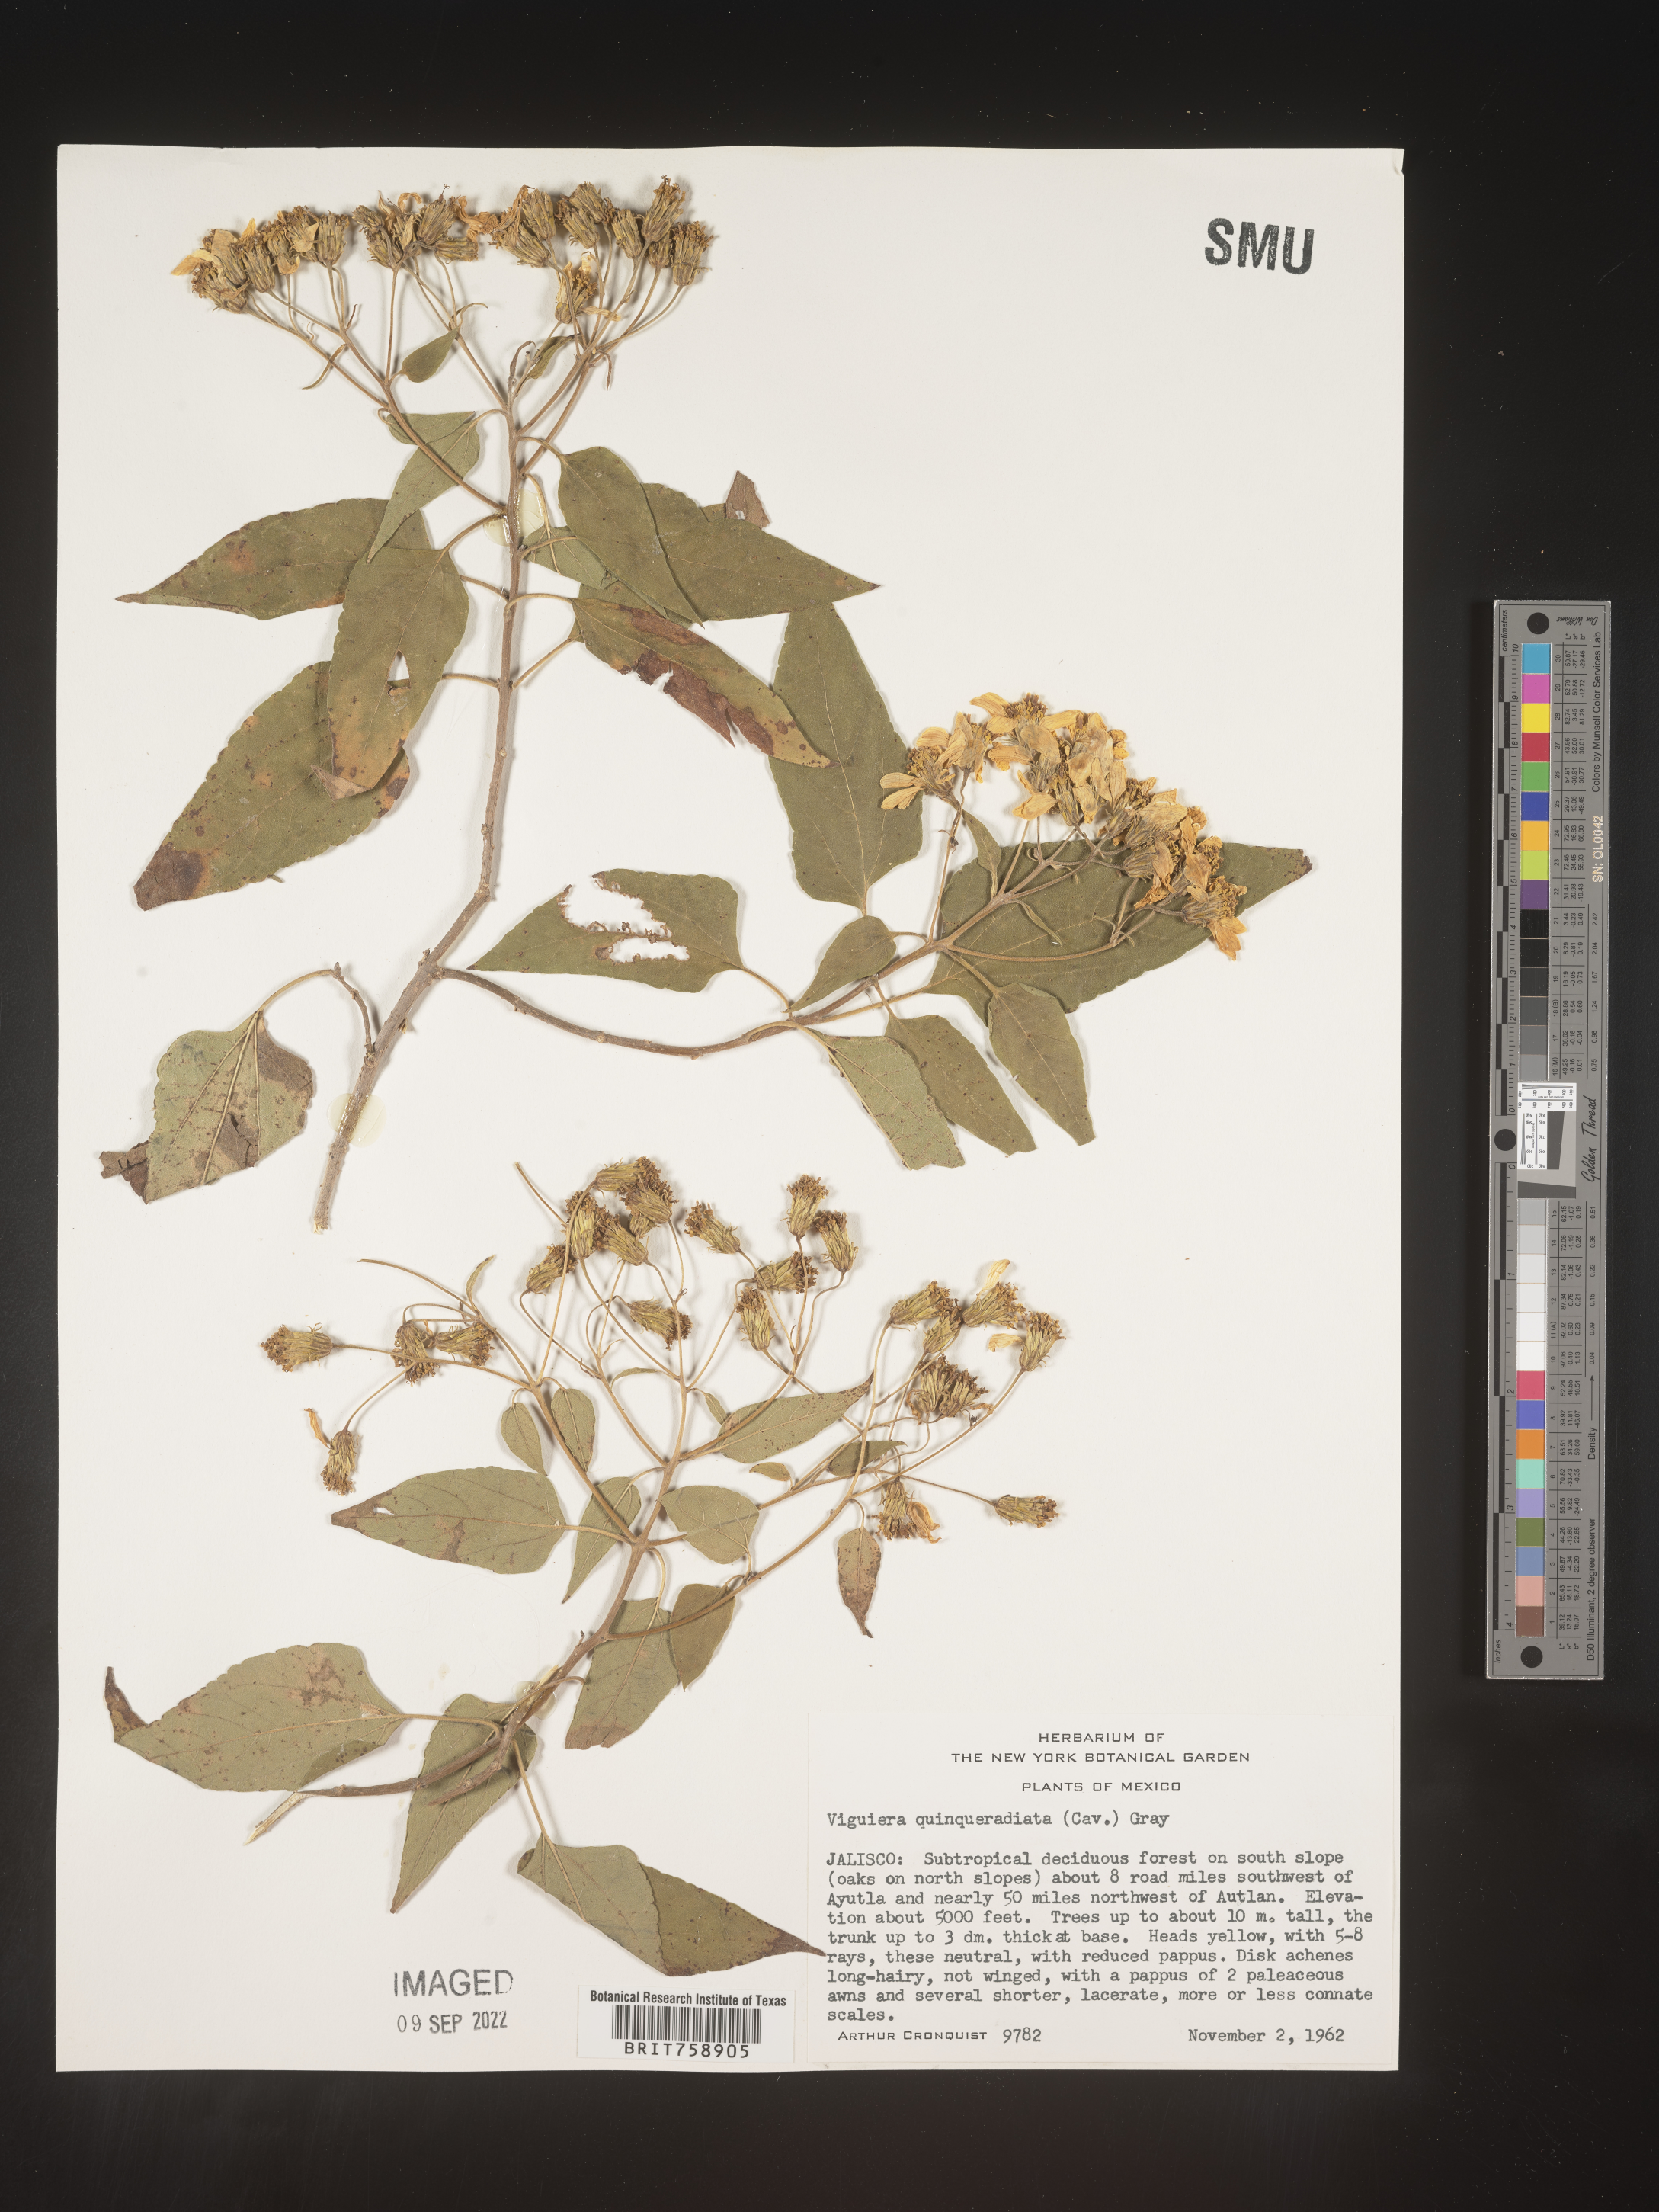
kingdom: Plantae
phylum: Tracheophyta
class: Magnoliopsida
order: Asterales
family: Asteraceae
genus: Viguiera
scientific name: Viguiera
